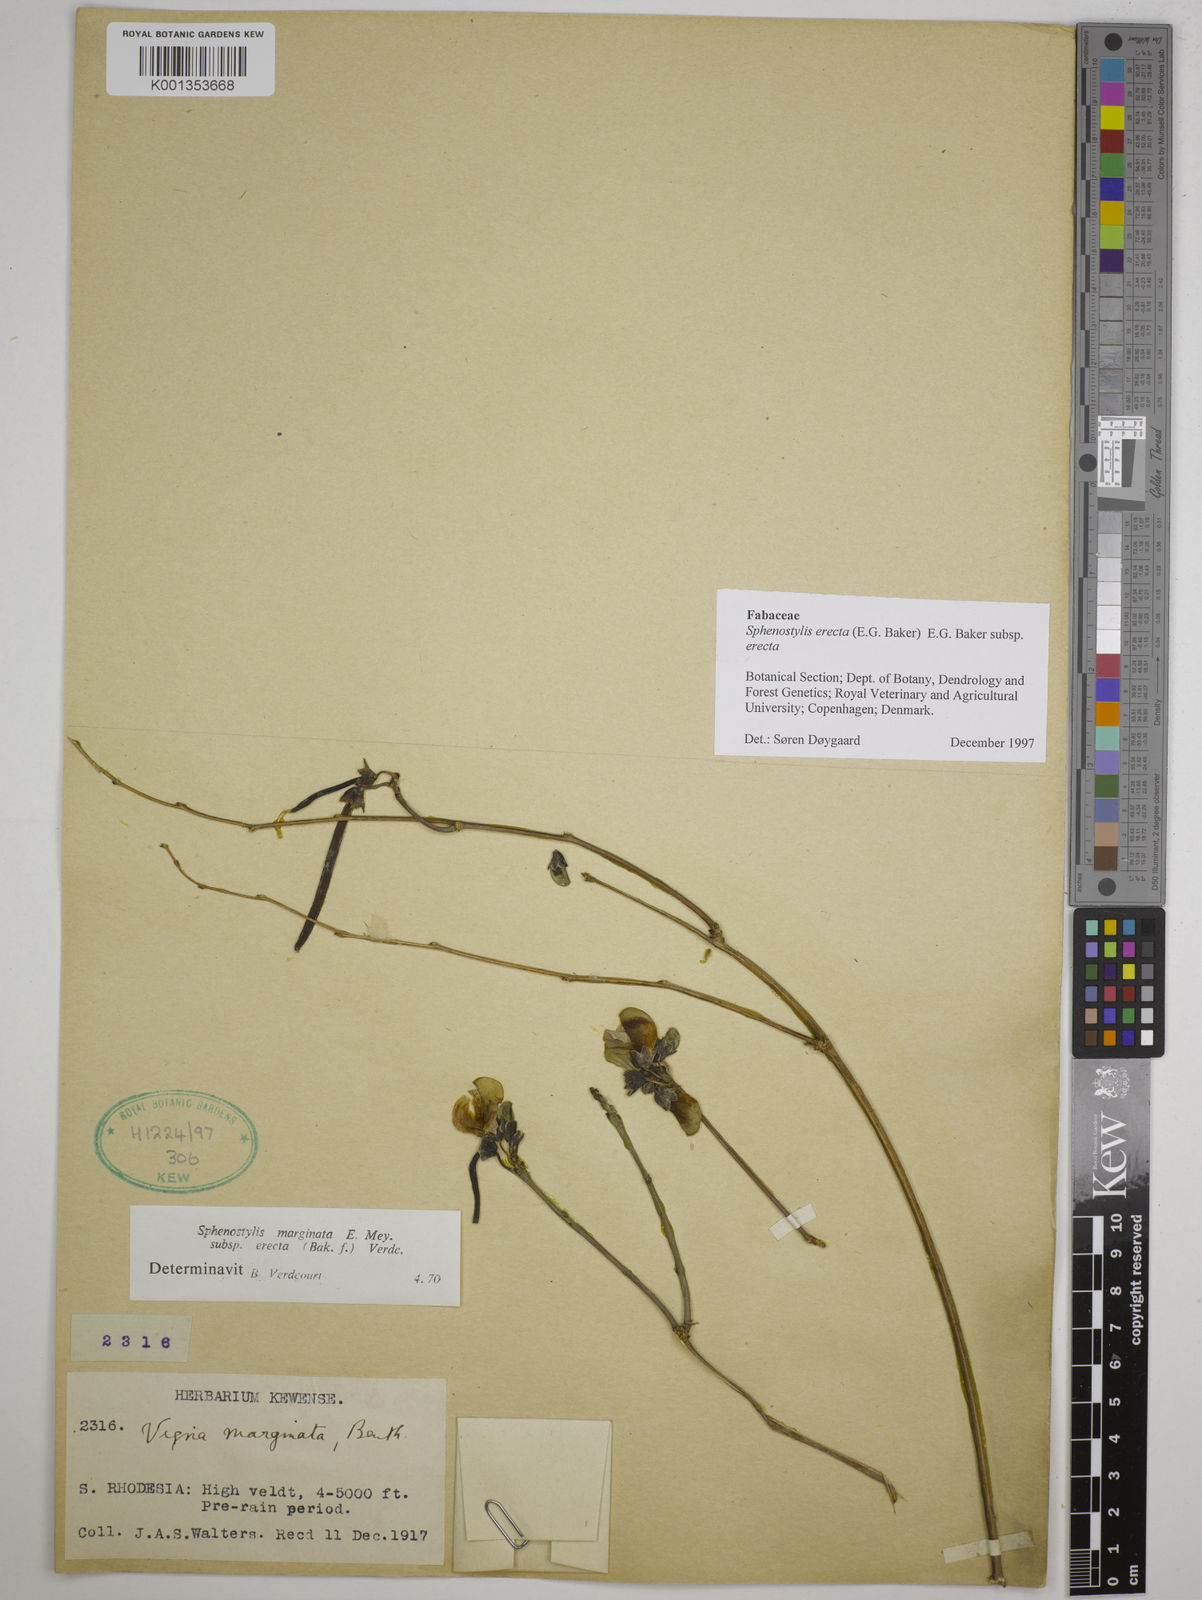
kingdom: Plantae
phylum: Tracheophyta
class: Magnoliopsida
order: Fabales
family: Fabaceae
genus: Sphenostylis
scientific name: Sphenostylis erecta
